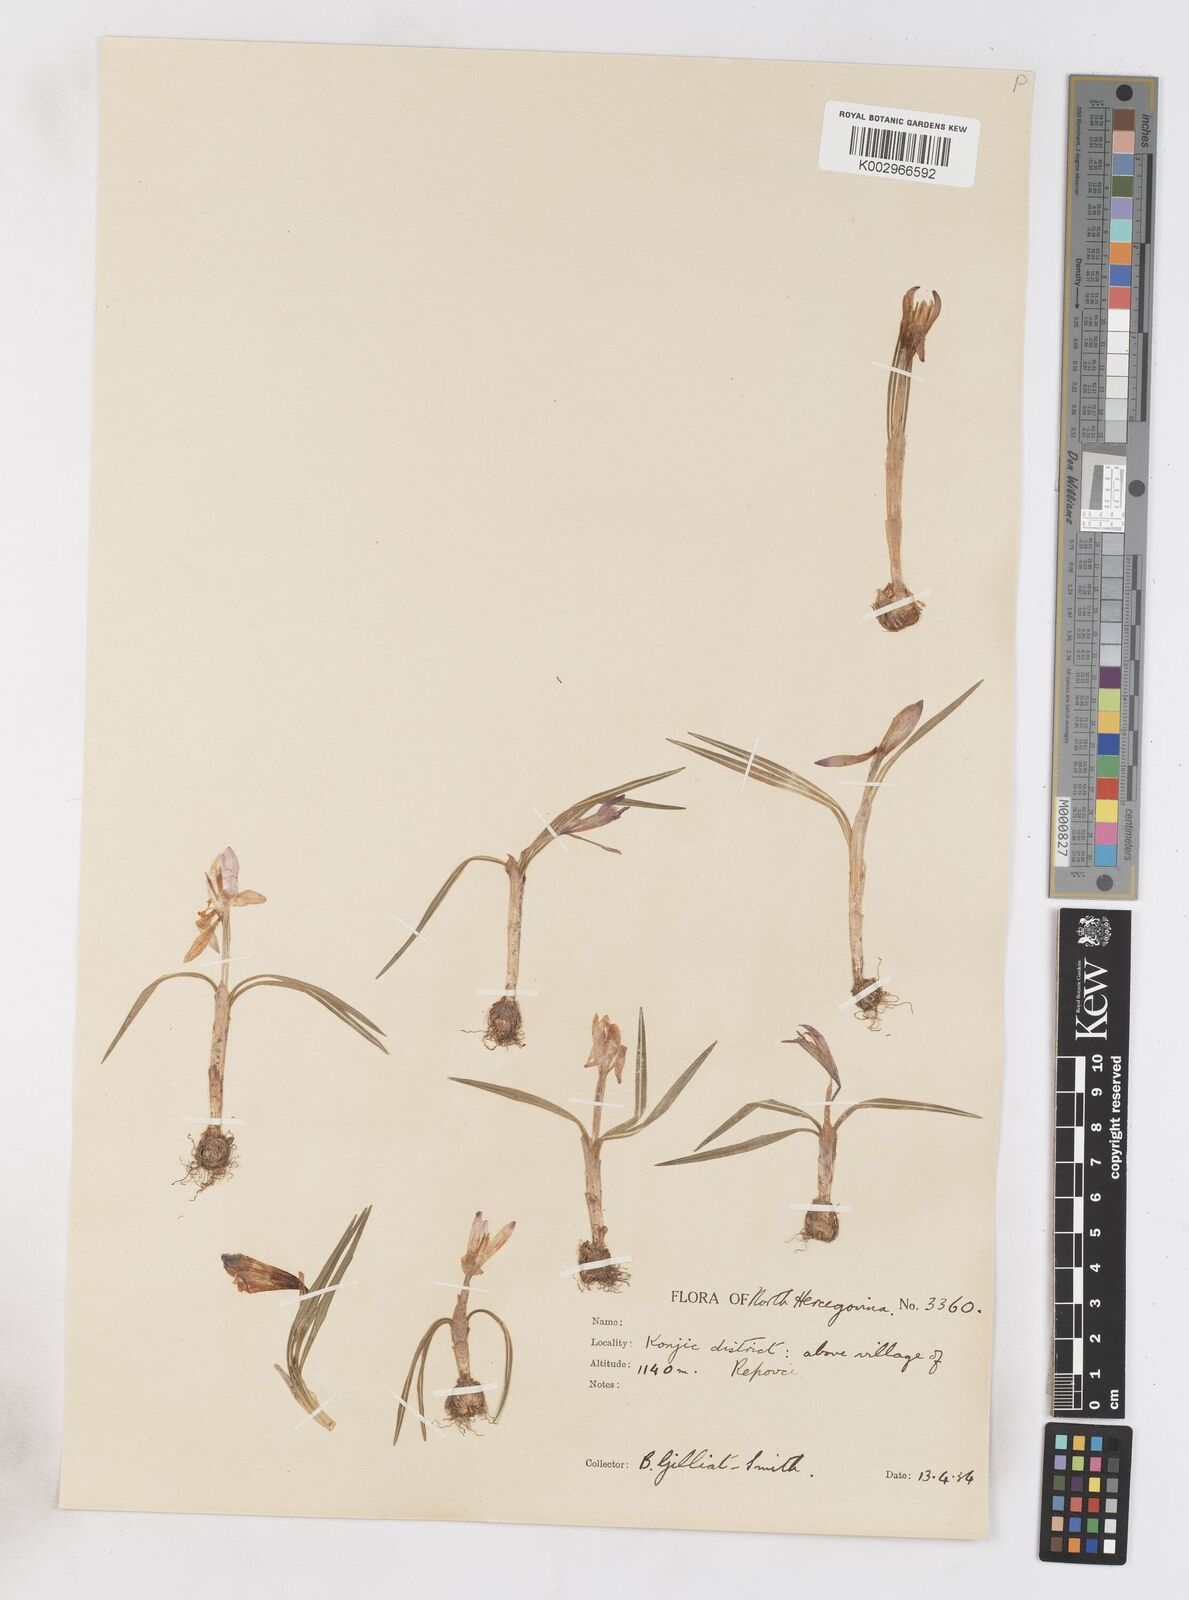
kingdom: Plantae
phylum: Tracheophyta
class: Liliopsida
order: Asparagales
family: Iridaceae
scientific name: Iridaceae
